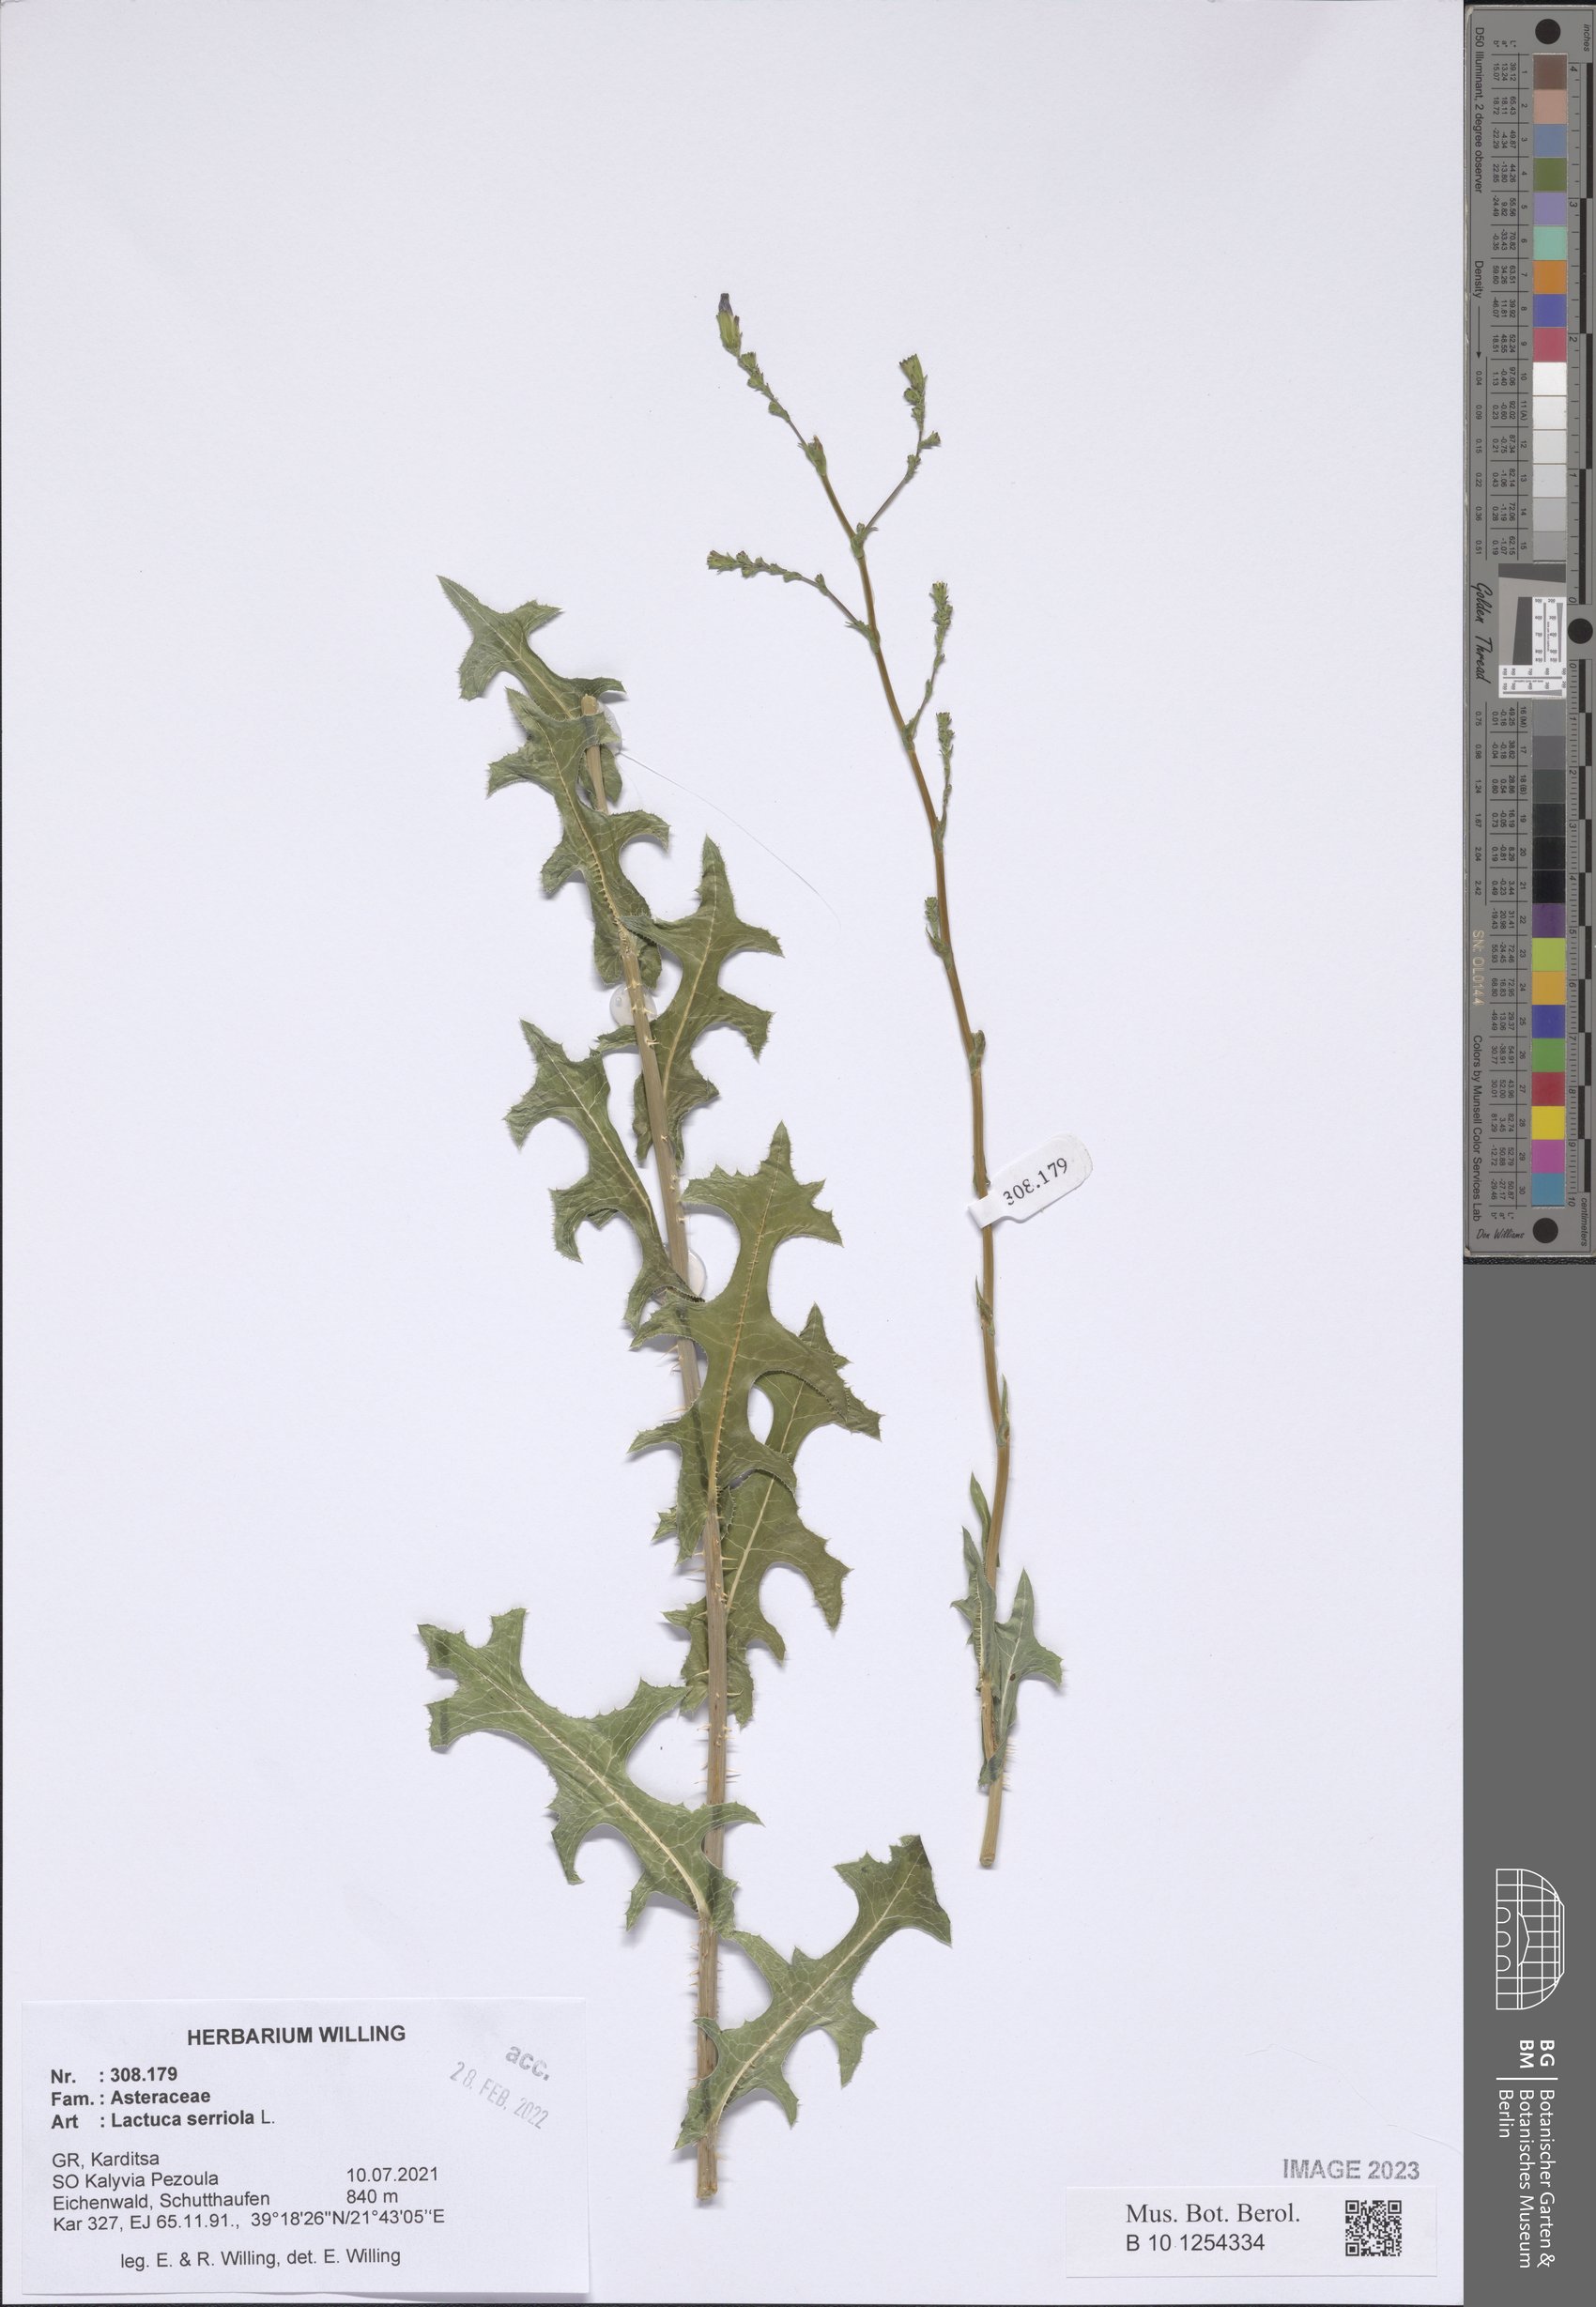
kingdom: Plantae
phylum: Tracheophyta
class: Magnoliopsida
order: Asterales
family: Asteraceae
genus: Lactuca
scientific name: Lactuca serriola
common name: Prickly lettuce
